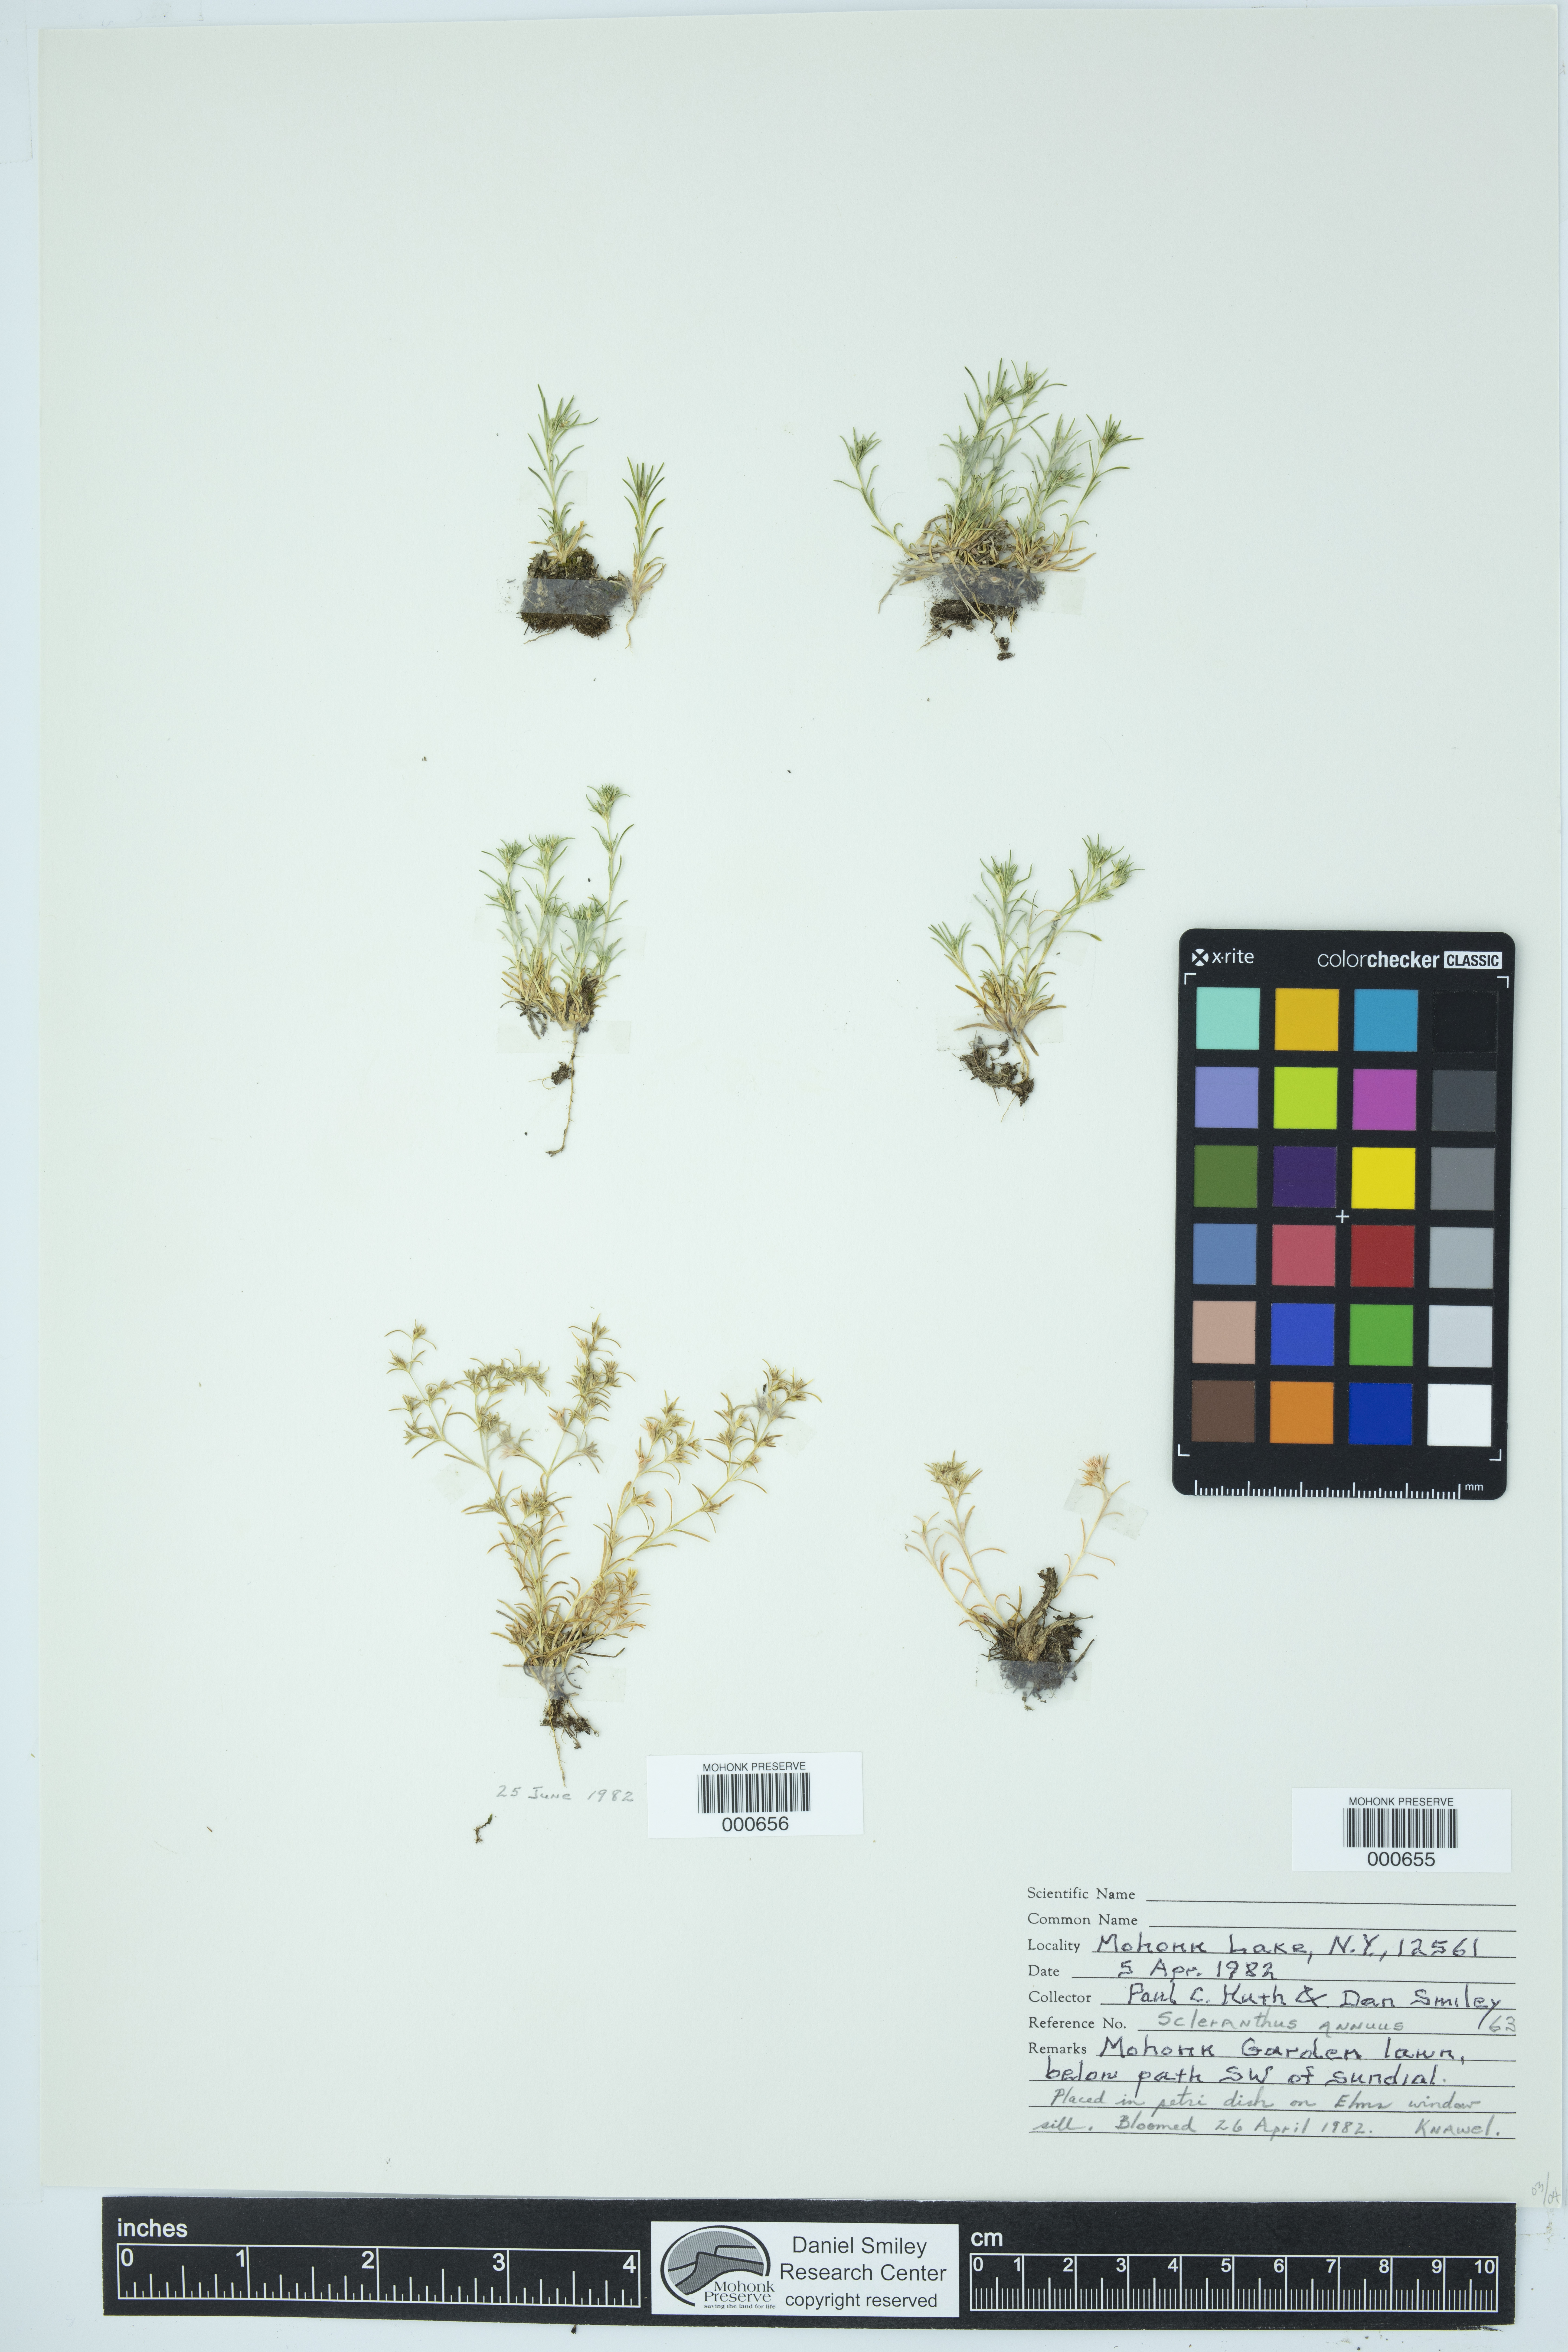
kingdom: Plantae
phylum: Tracheophyta
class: Magnoliopsida
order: Caryophyllales
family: Caryophyllaceae
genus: Scleranthus
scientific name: Scleranthus annuus
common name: Annual knawel
